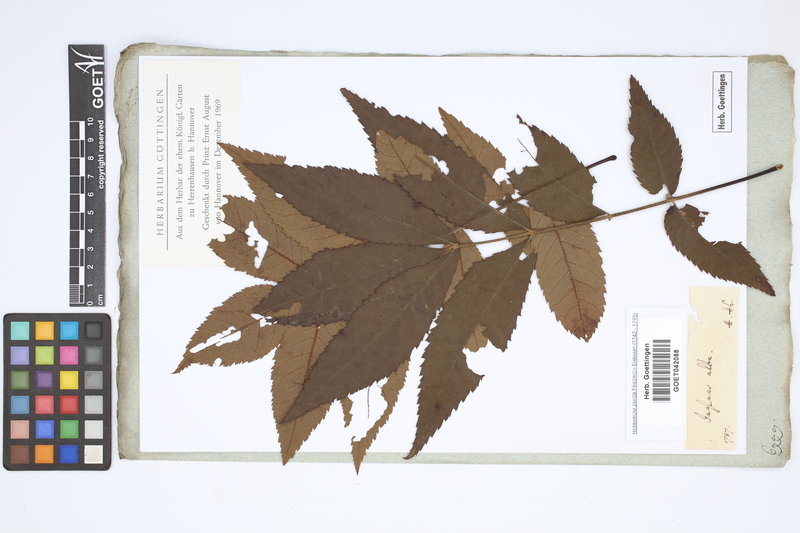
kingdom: Plantae
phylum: Tracheophyta
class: Magnoliopsida
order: Fagales
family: Juglandaceae
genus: Carya
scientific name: Carya alba
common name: Mockernut hickory
